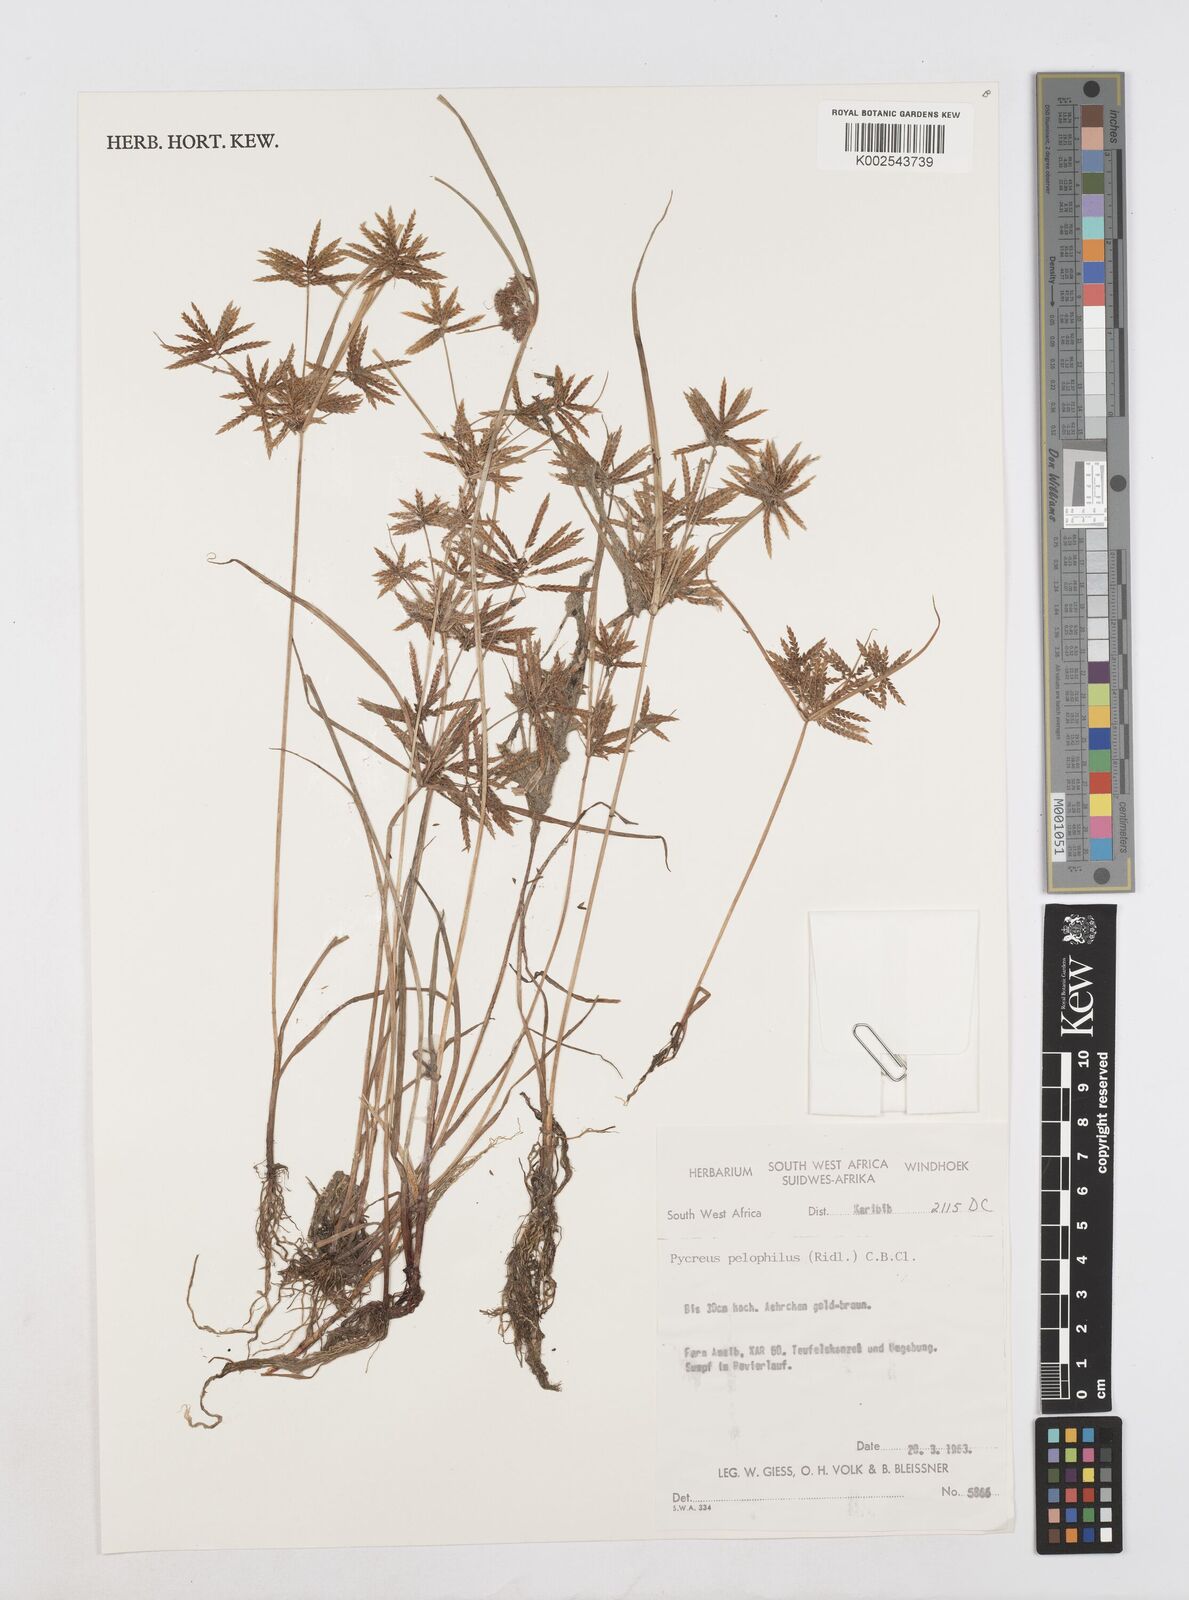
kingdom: Plantae
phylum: Tracheophyta
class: Liliopsida
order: Poales
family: Cyperaceae
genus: Cyperus
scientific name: Cyperus pelophilus
